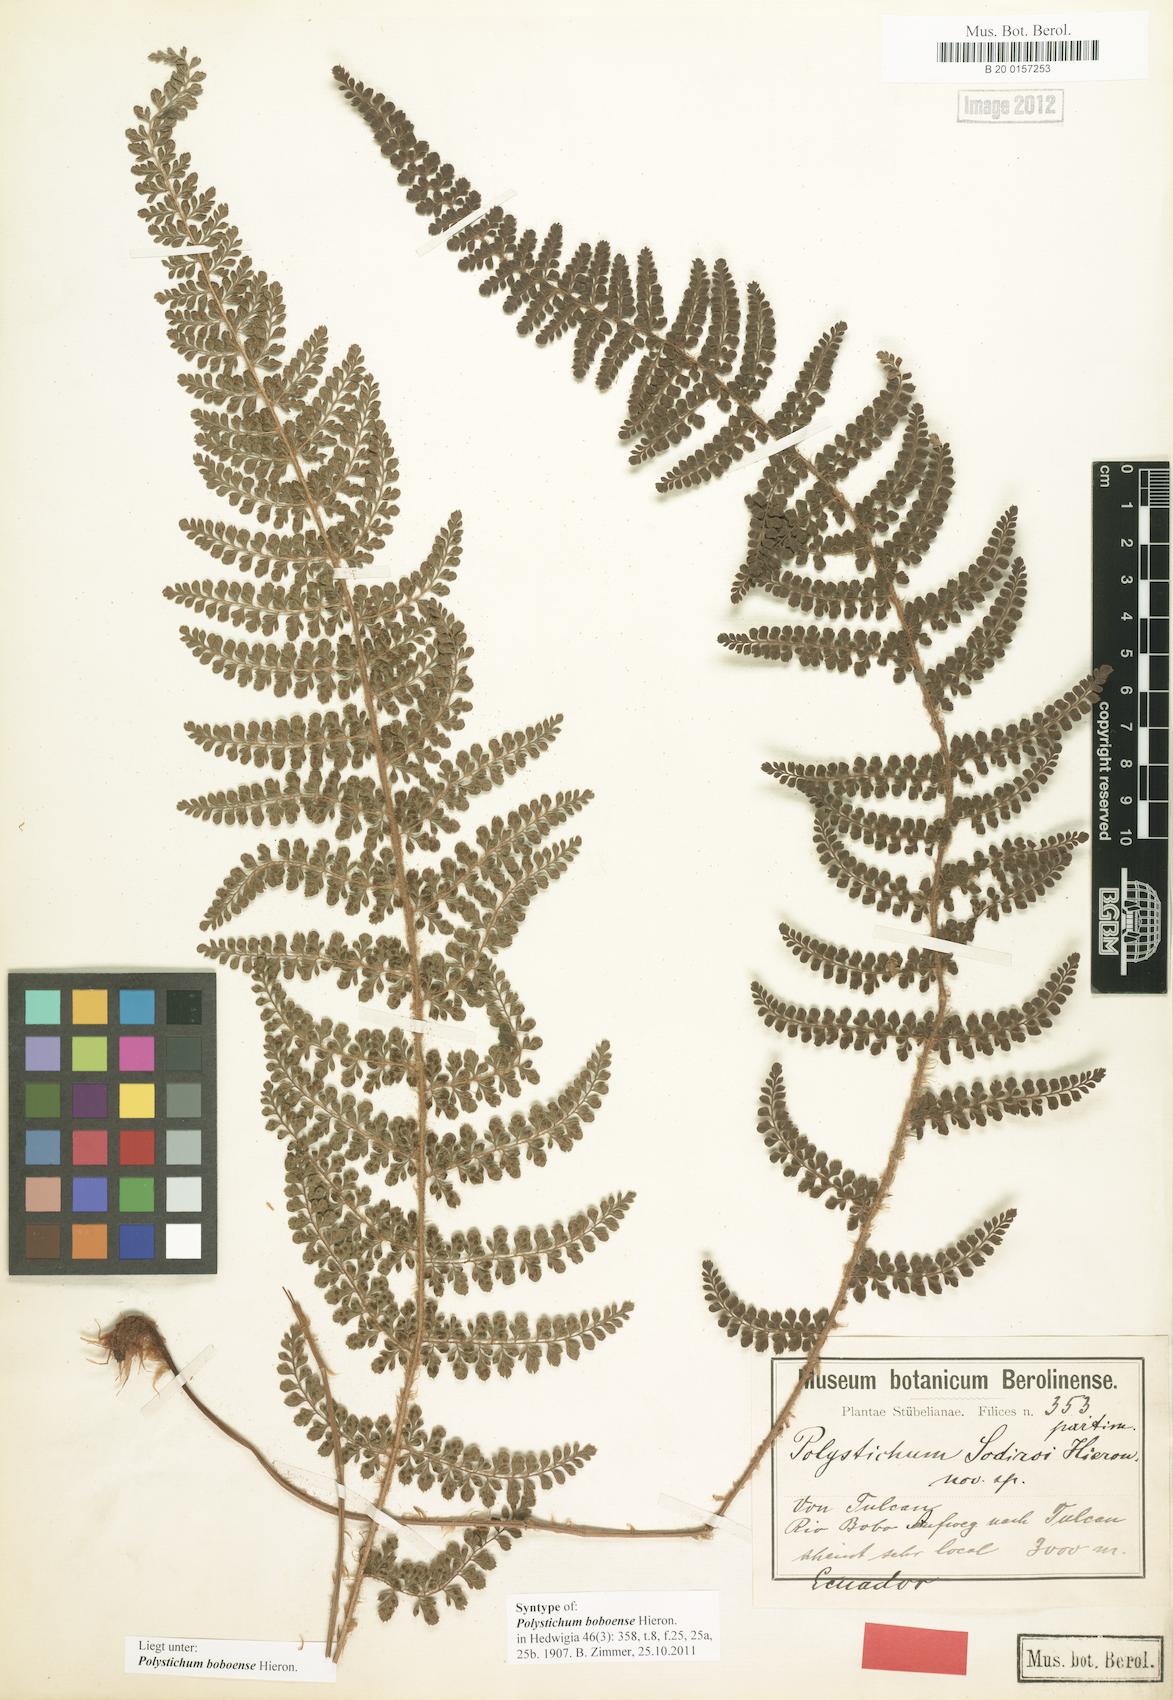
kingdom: Plantae
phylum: Tracheophyta
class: Polypodiopsida
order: Polypodiales
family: Dryopteridaceae
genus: Polystichum
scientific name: Polystichum boboense
